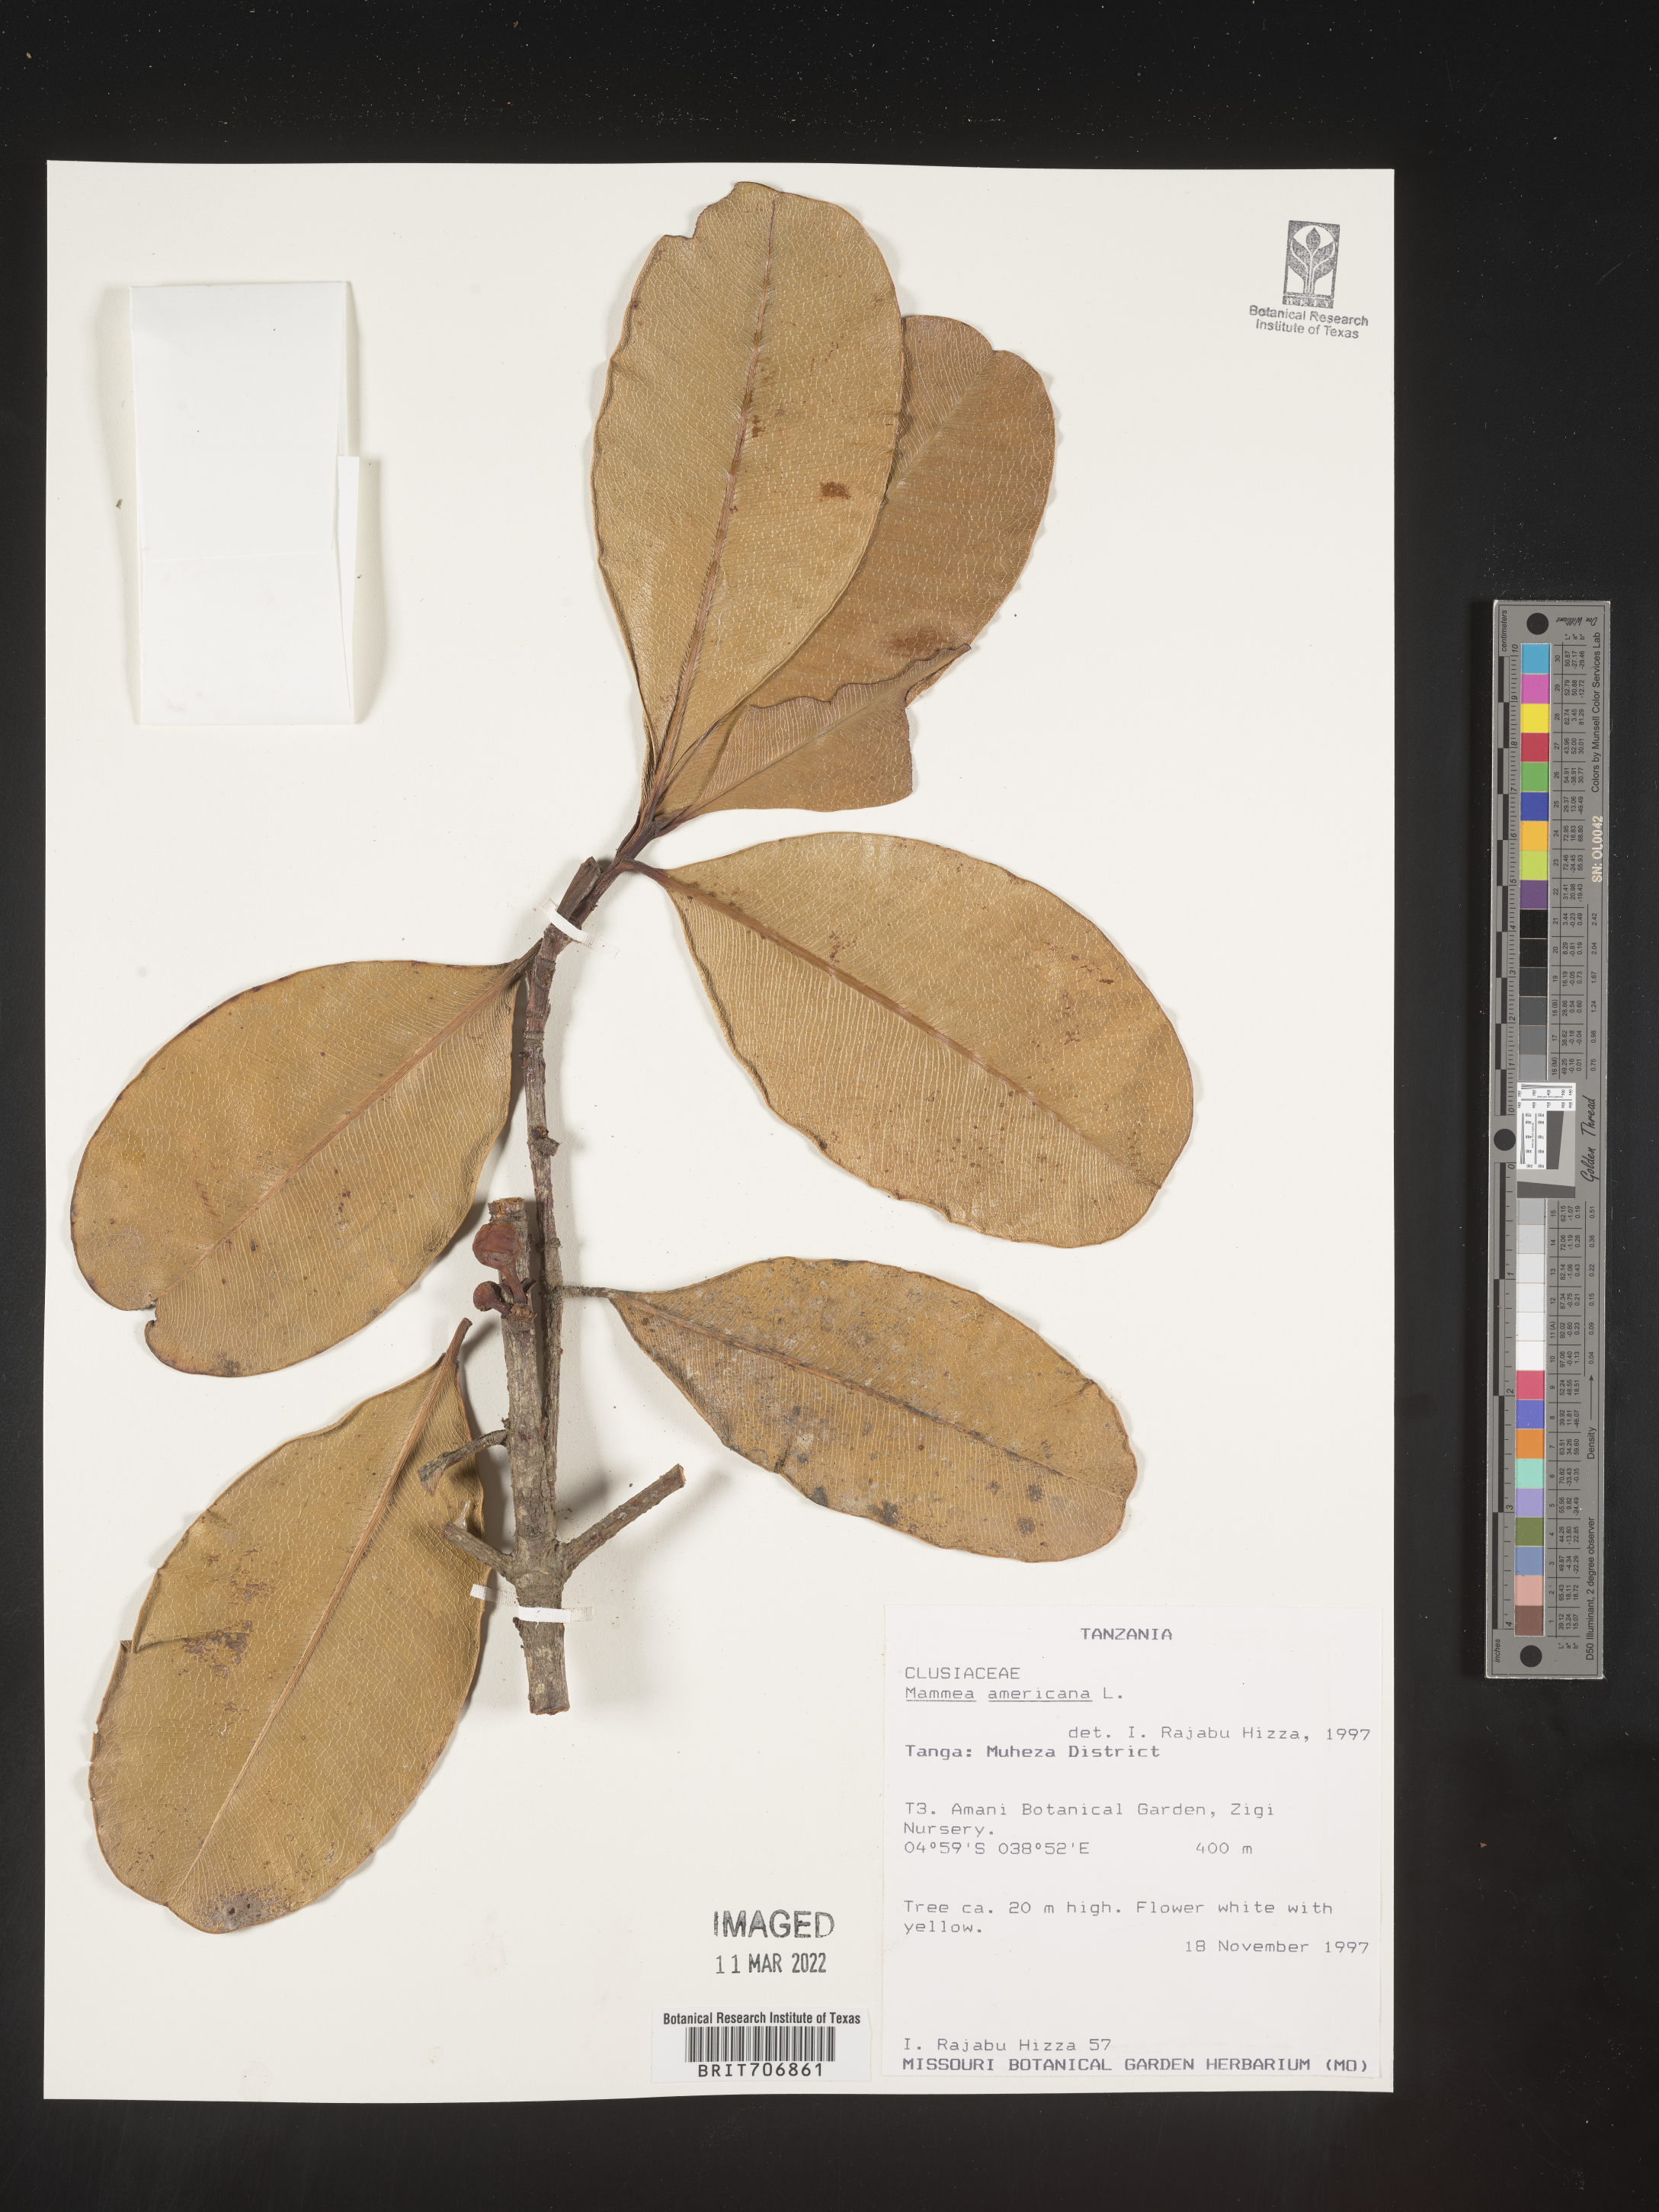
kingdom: Plantae
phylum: Tracheophyta
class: Magnoliopsida
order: Malpighiales
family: Calophyllaceae
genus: Mammea
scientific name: Mammea
